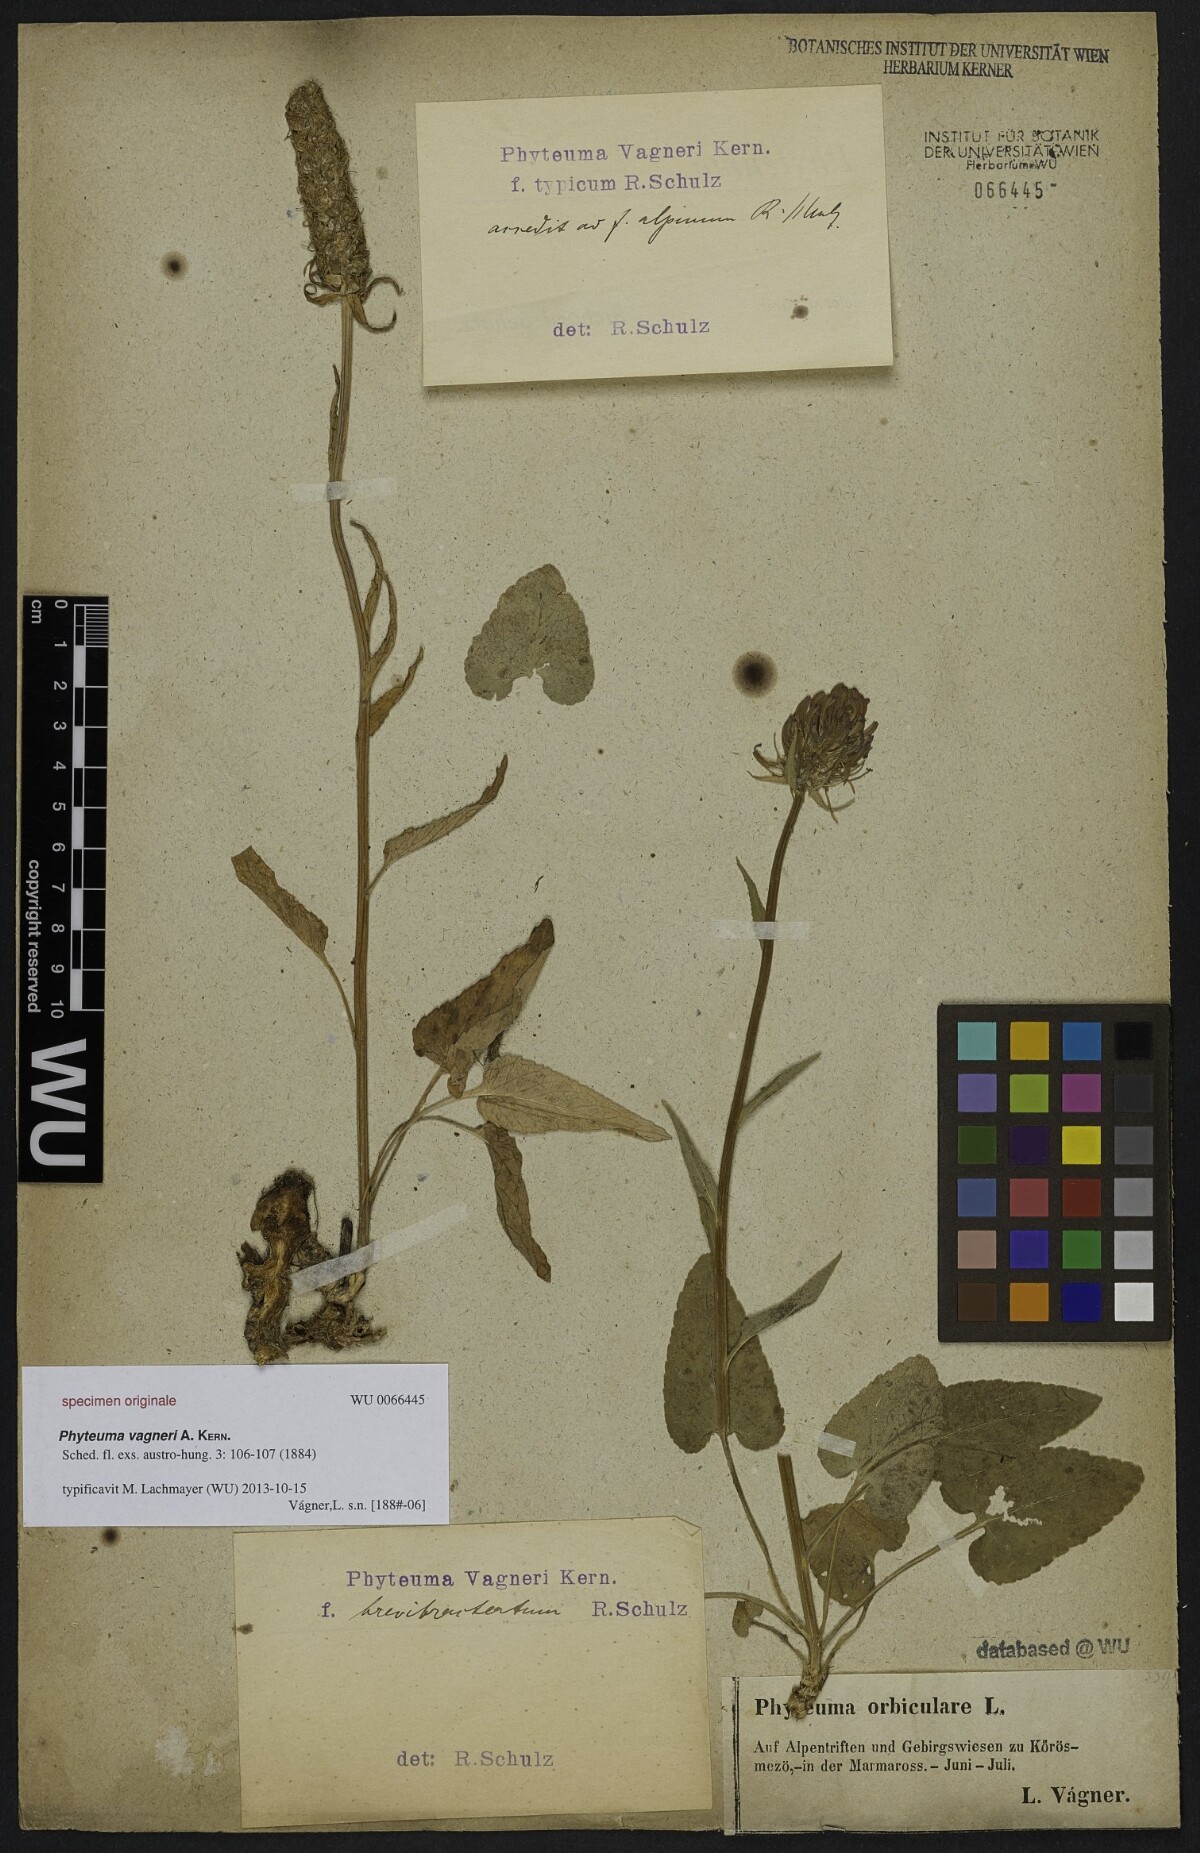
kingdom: Plantae
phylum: Tracheophyta
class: Magnoliopsida
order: Asterales
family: Campanulaceae
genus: Phyteuma
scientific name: Phyteuma vagneri
